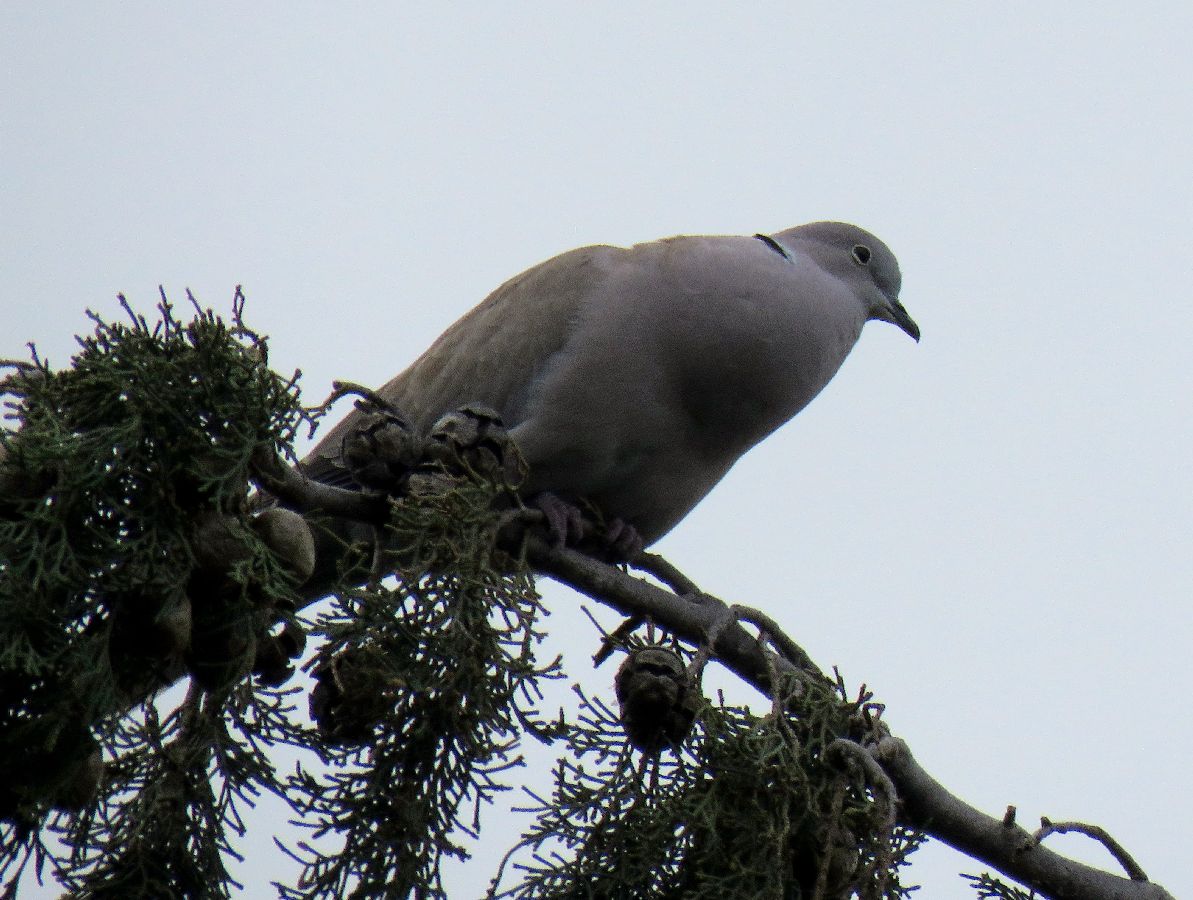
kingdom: Animalia
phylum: Chordata
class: Aves
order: Columbiformes
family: Columbidae
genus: Streptopelia
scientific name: Streptopelia decaocto
